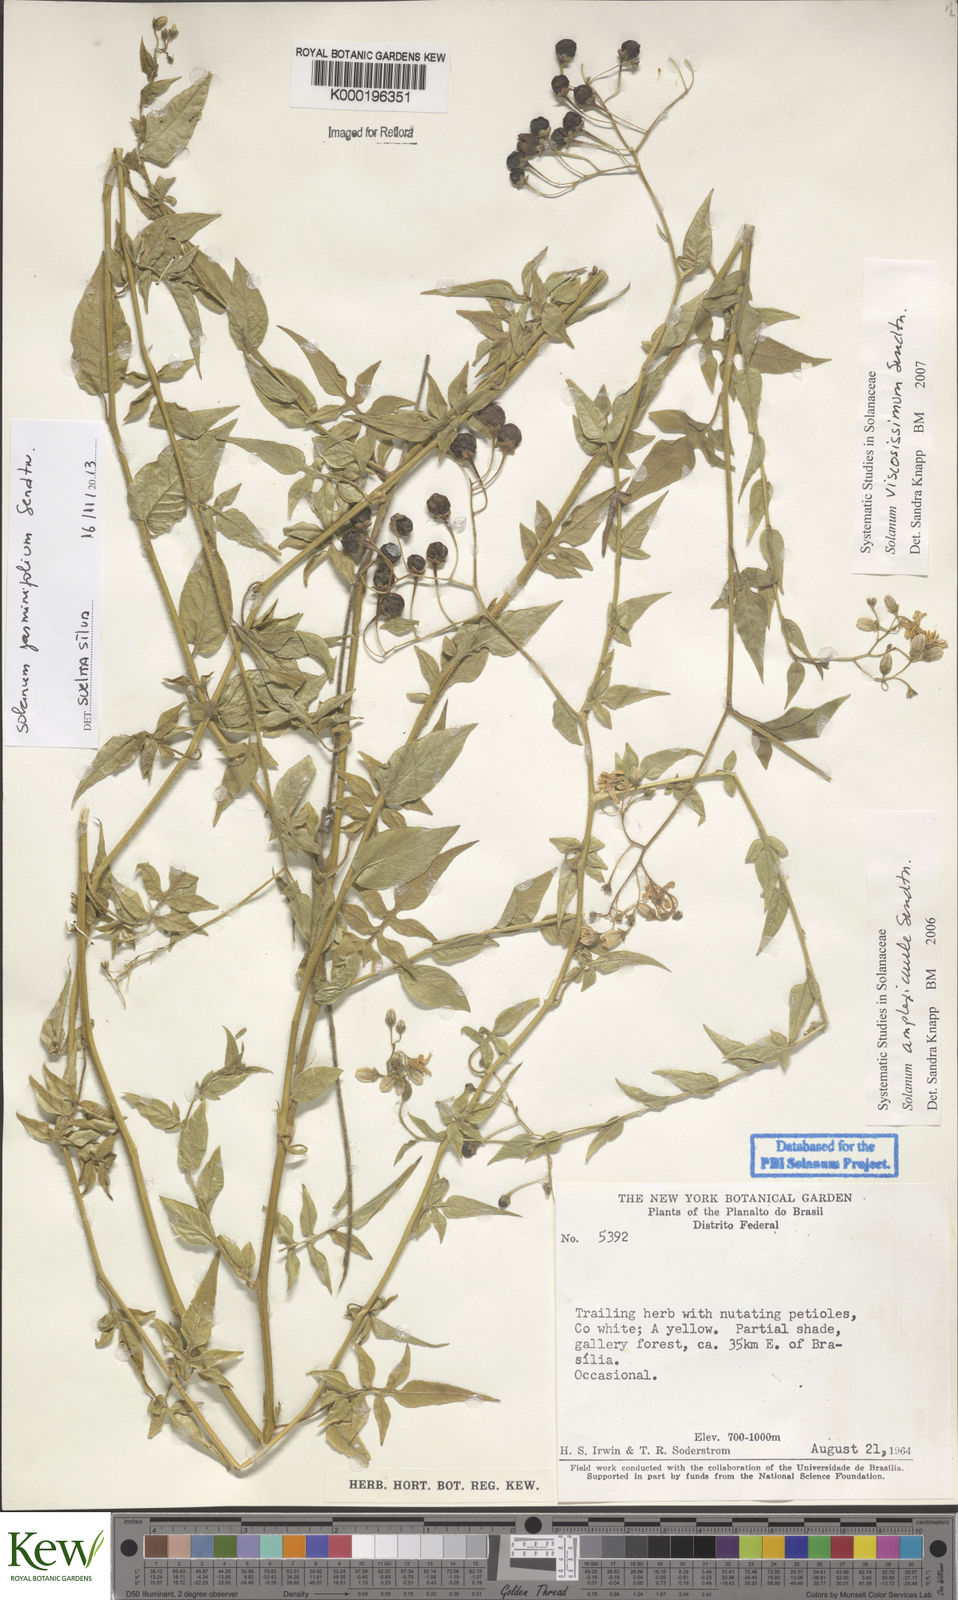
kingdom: Plantae
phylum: Tracheophyta
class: Magnoliopsida
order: Solanales
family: Solanaceae
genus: Solanum
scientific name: Solanum viscosissimum
